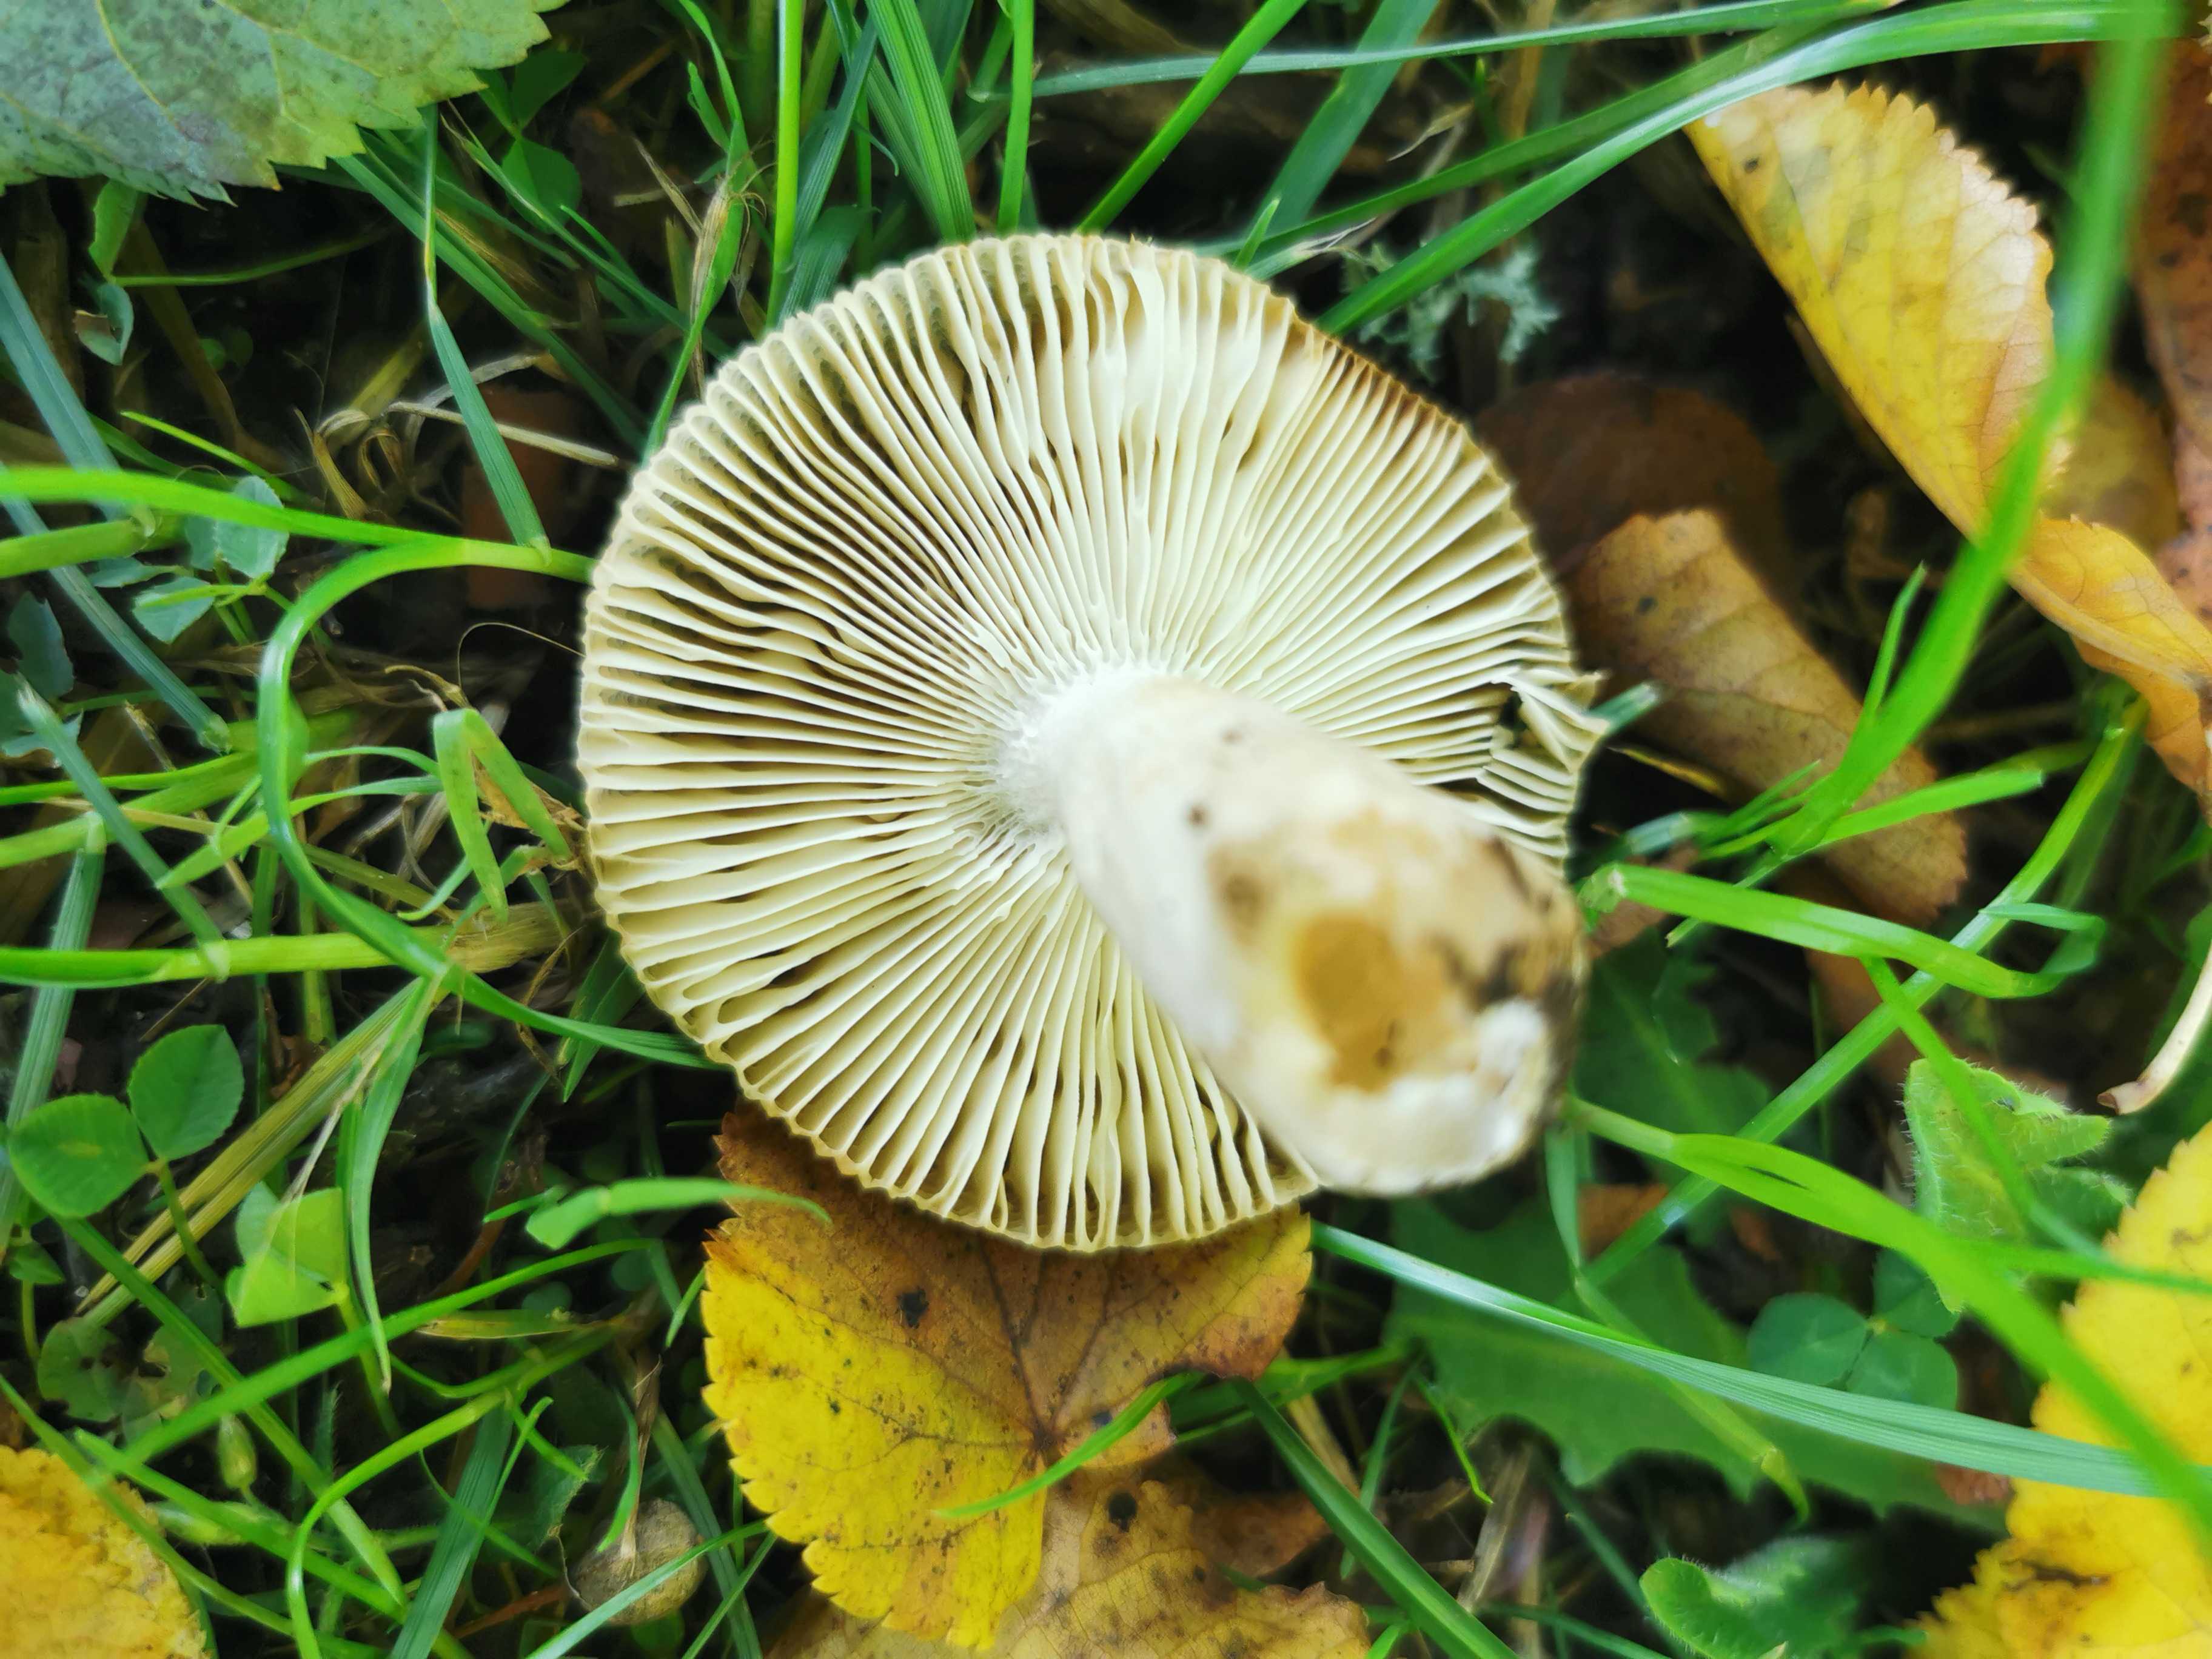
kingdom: Fungi
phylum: Basidiomycota
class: Agaricomycetes
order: Russulales
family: Russulaceae
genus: Russula
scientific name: Russula recondita
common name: mild kam-skørhat
